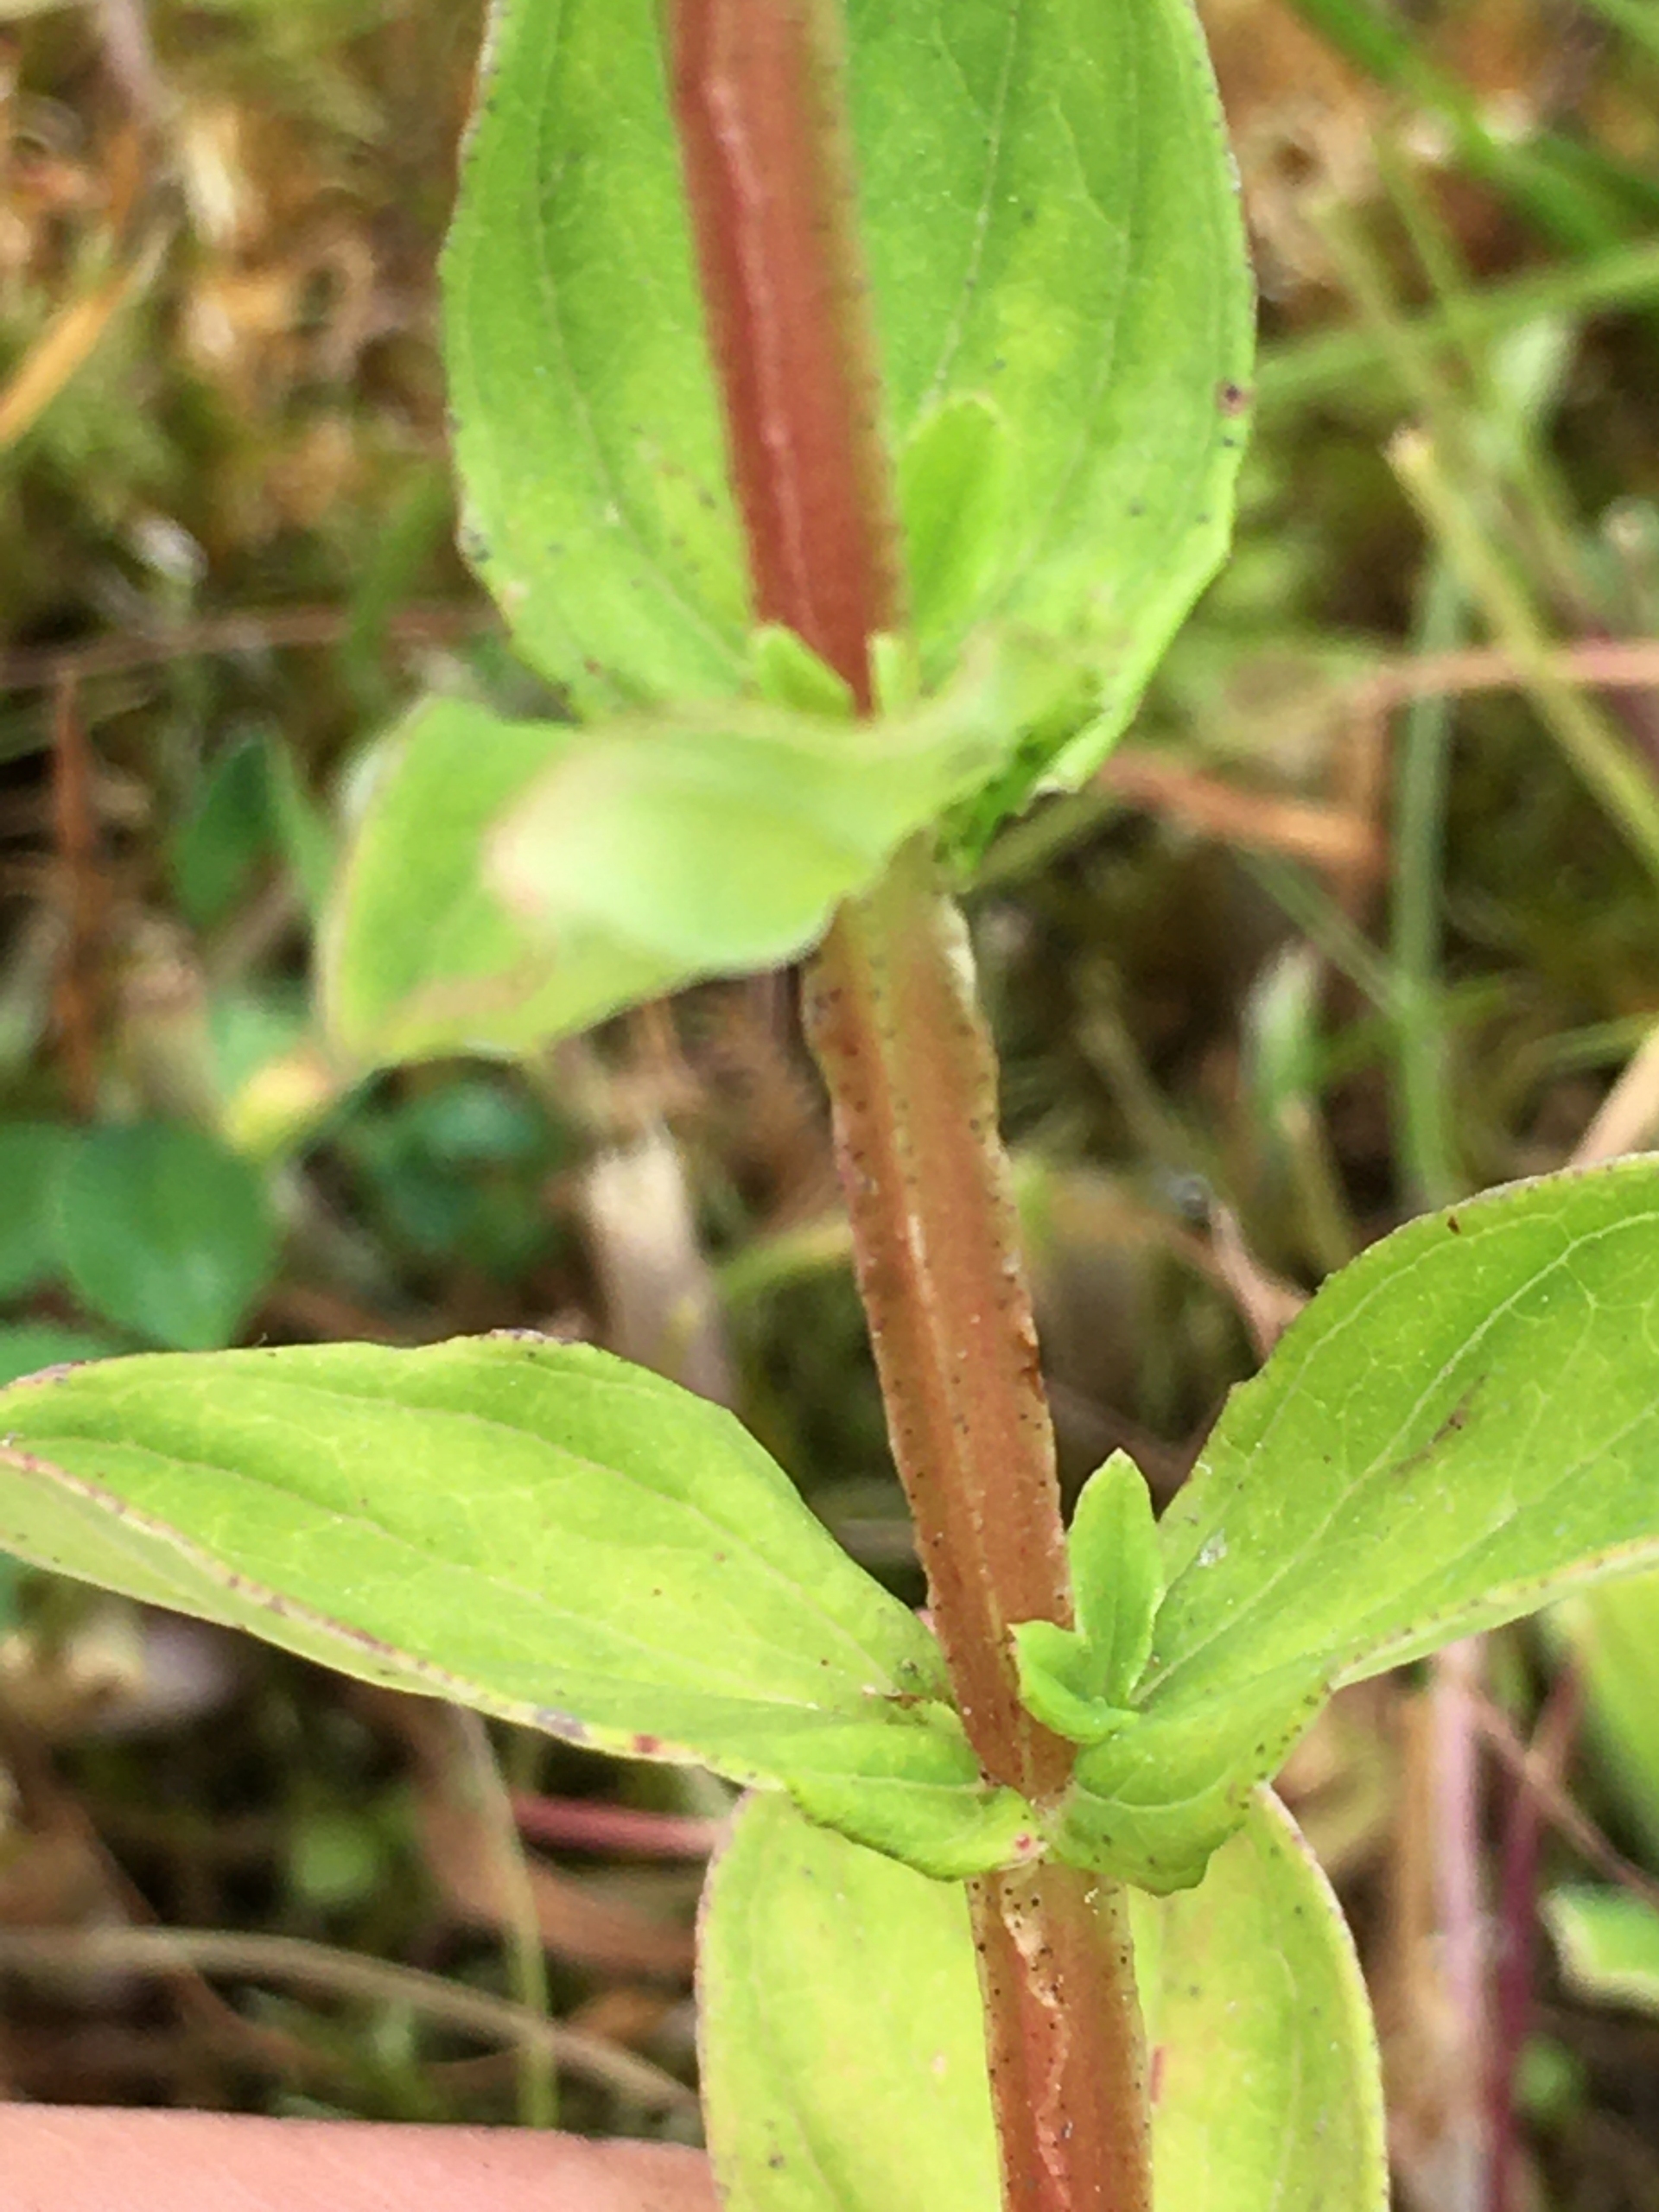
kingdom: Plantae
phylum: Tracheophyta
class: Magnoliopsida
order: Malpighiales
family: Hypericaceae
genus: Hypericum
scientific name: Hypericum tetrapterum
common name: Vinget perikon
